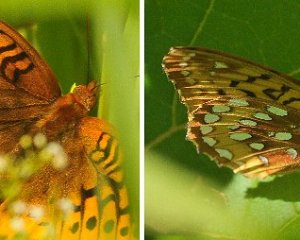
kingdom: Animalia
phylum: Arthropoda
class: Insecta
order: Lepidoptera
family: Nymphalidae
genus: Speyeria
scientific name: Speyeria cybele
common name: Great Spangled Fritillary
